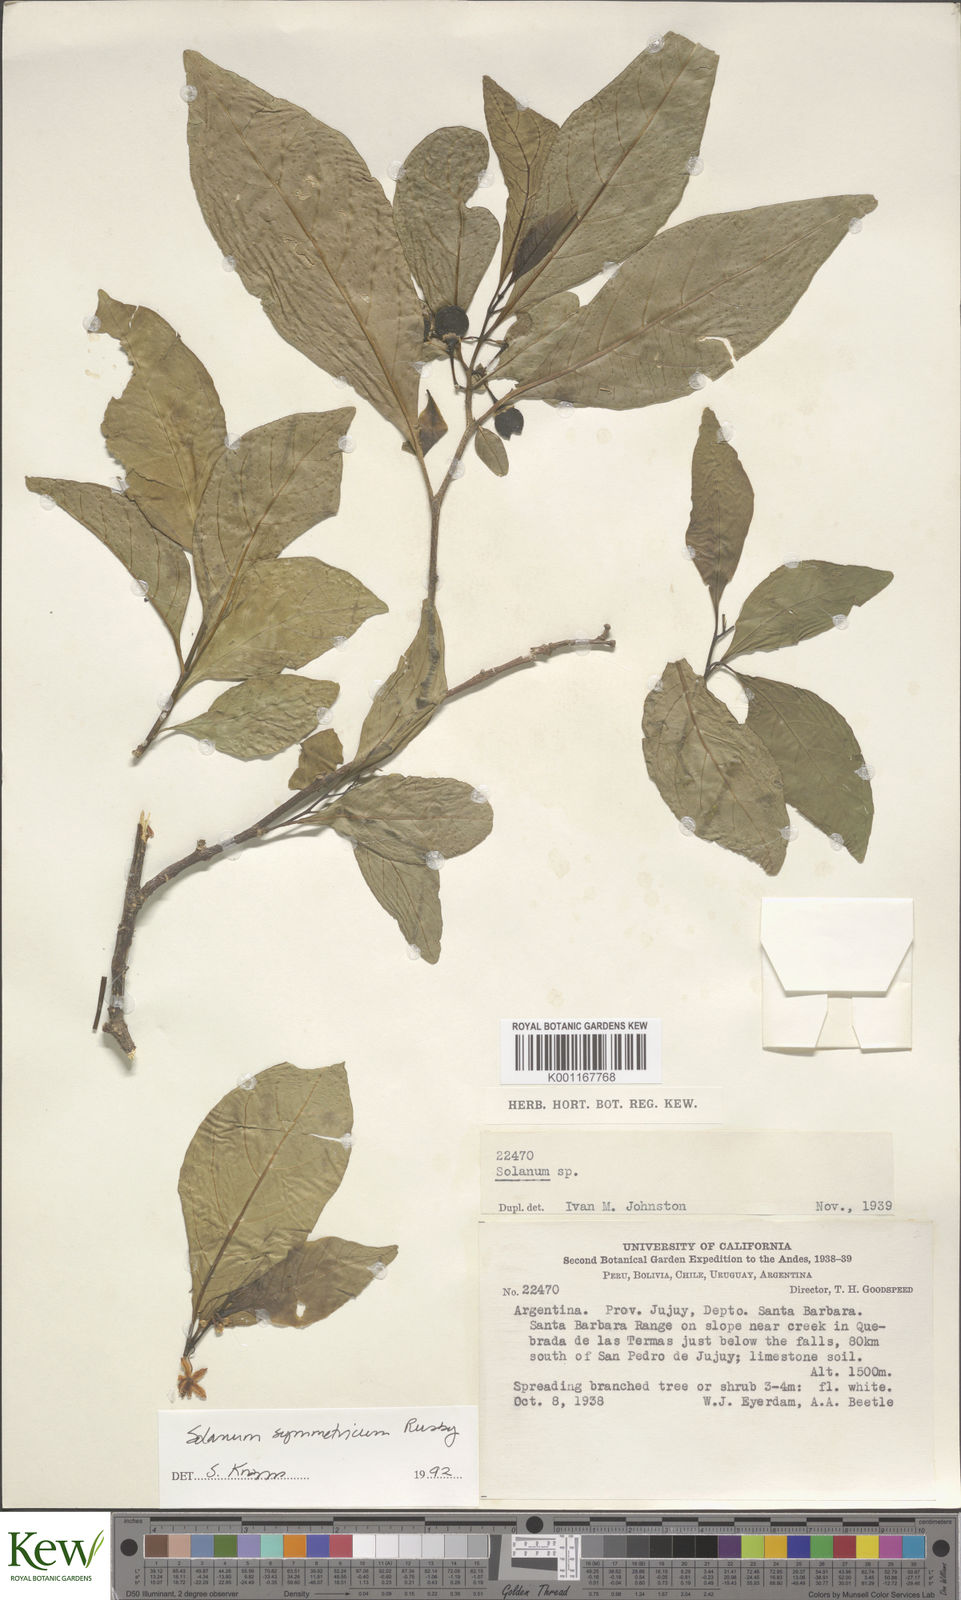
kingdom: Plantae
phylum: Tracheophyta
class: Magnoliopsida
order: Solanales
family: Solanaceae
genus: Solanum
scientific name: Solanum symmetricum
